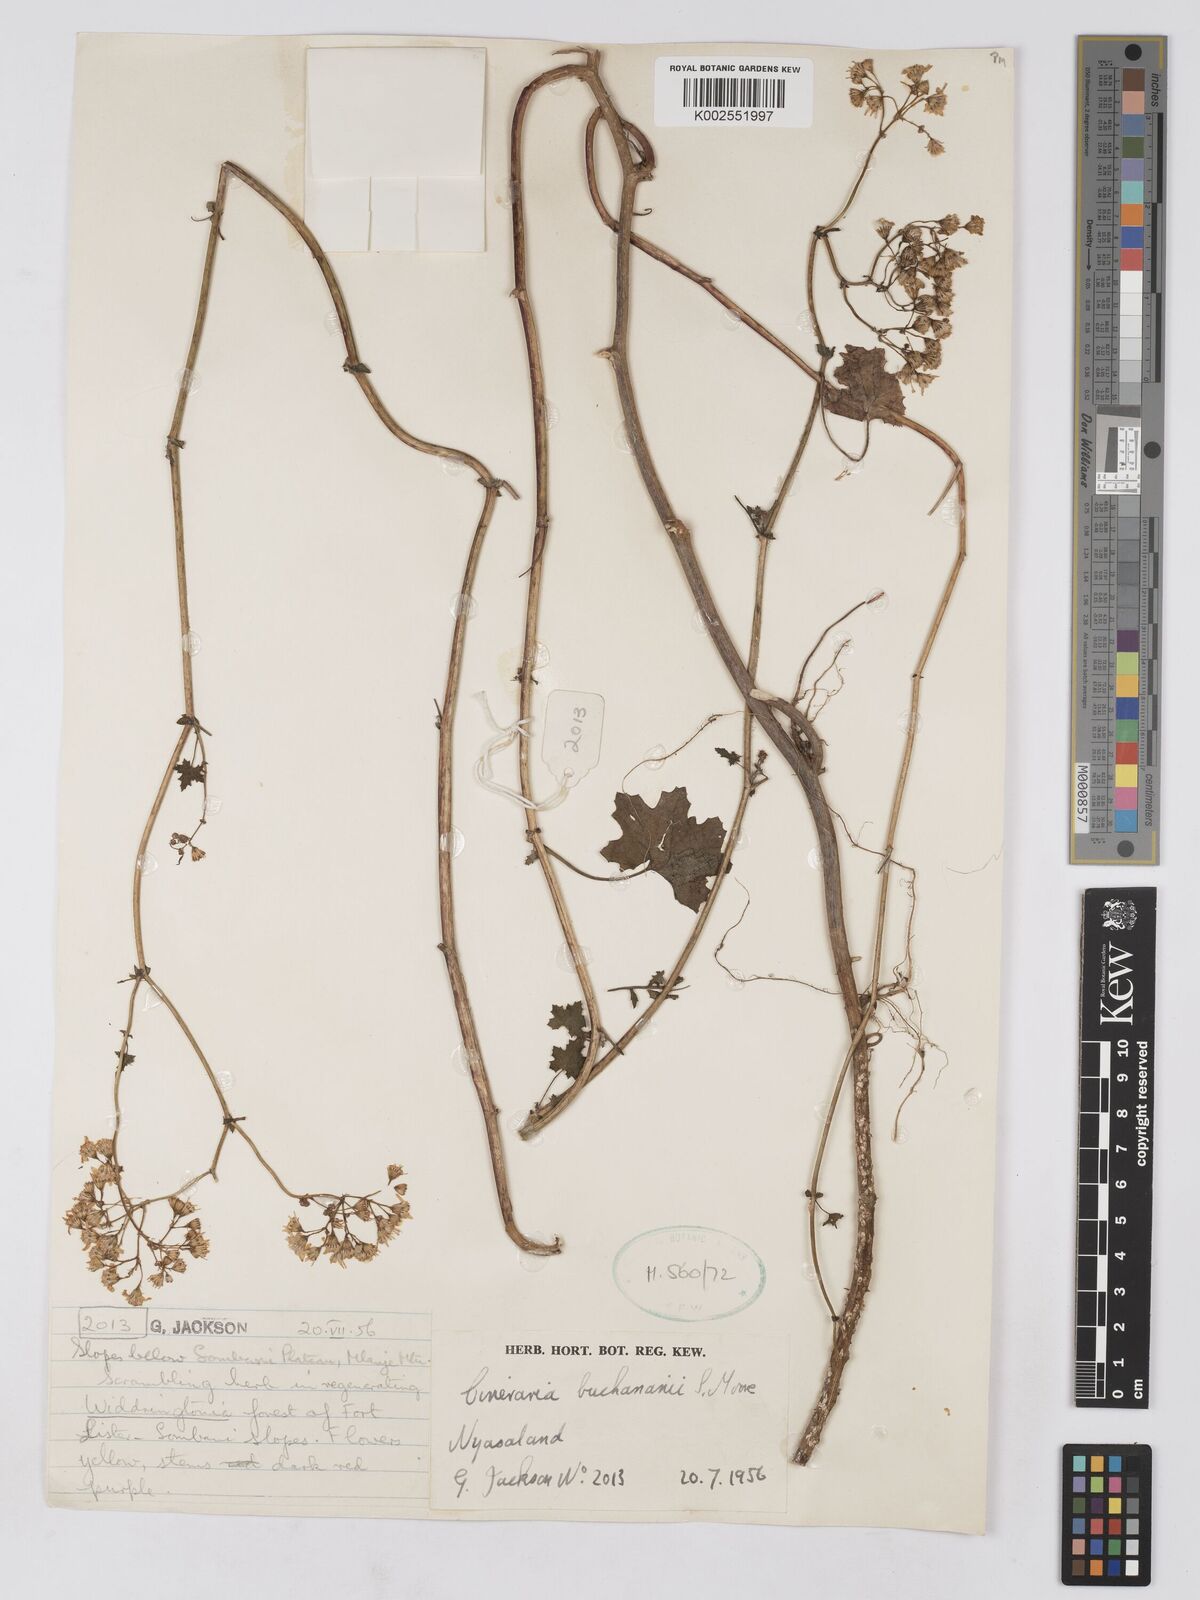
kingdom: Plantae
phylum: Tracheophyta
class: Magnoliopsida
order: Asterales
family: Asteraceae
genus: Cineraria
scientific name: Cineraria deltoidea
